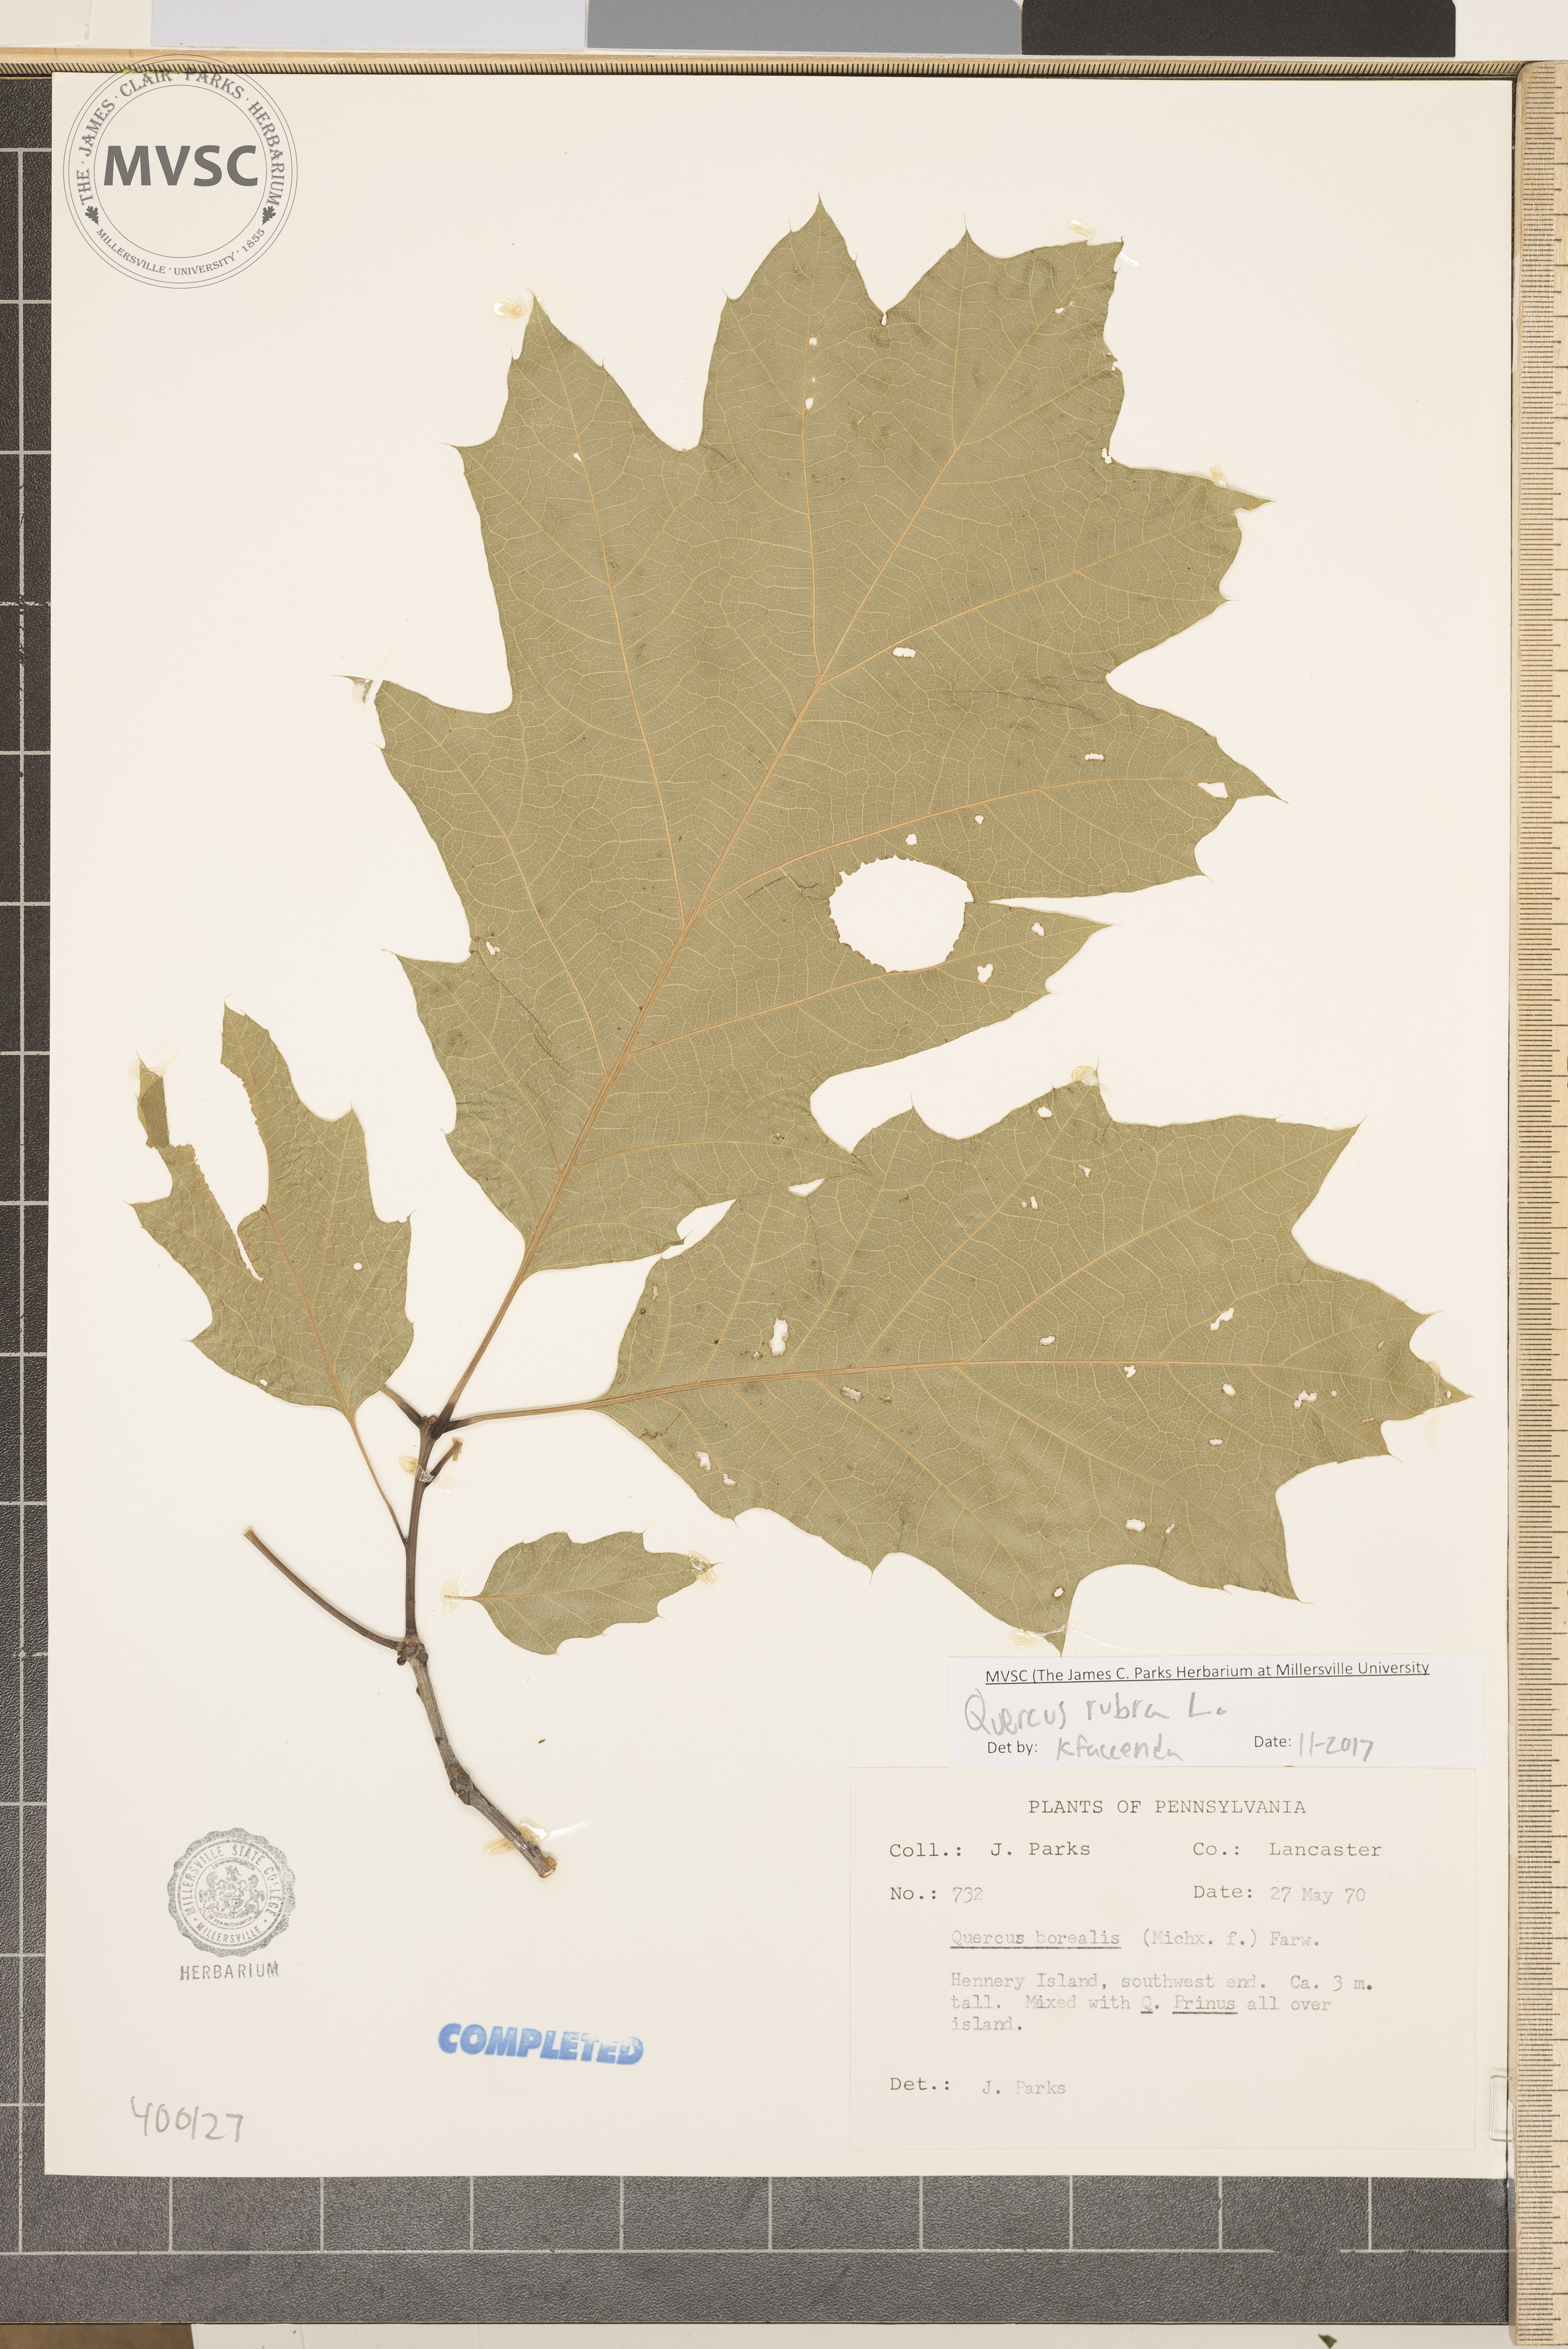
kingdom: Plantae
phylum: Tracheophyta
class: Magnoliopsida
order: Fagales
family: Fagaceae
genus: Quercus
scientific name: Quercus rubra
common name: red oak
